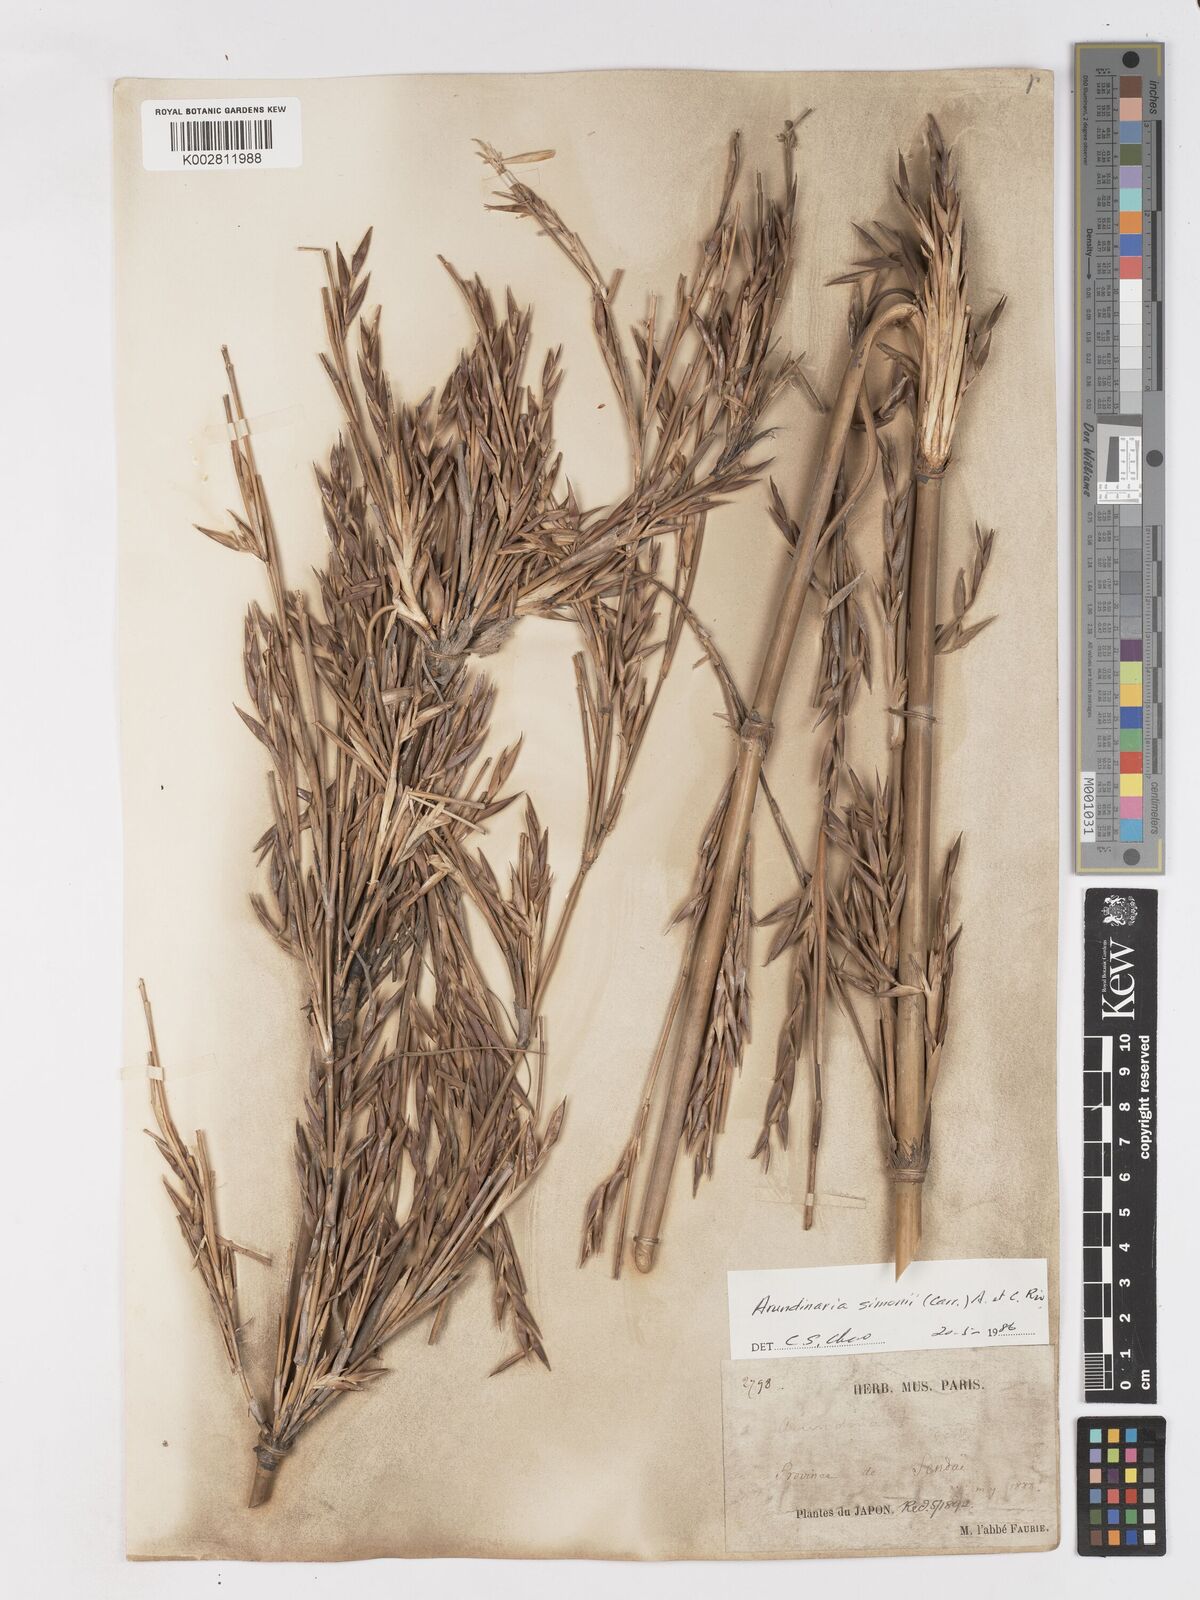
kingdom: Plantae
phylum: Tracheophyta
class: Liliopsida
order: Poales
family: Poaceae
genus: Pleioblastus
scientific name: Pleioblastus simonii
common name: Simon bamboo
